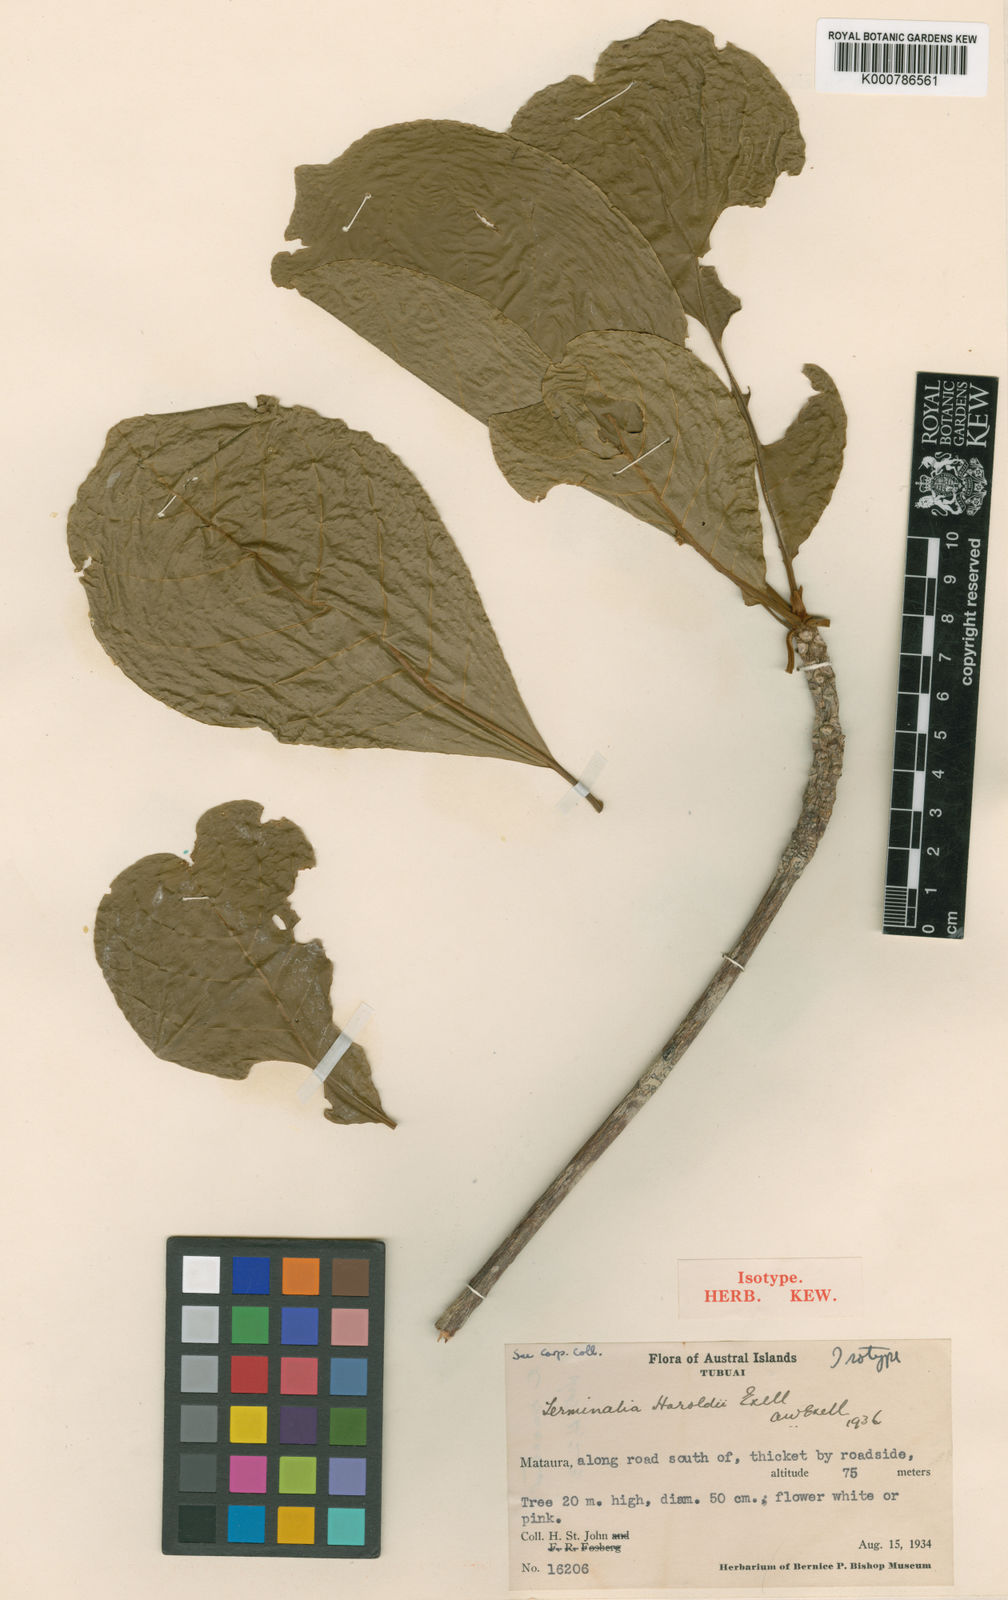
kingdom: Plantae
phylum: Tracheophyta
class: Magnoliopsida
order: Myrtales
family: Combretaceae
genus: Terminalia
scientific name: Terminalia glabrata
